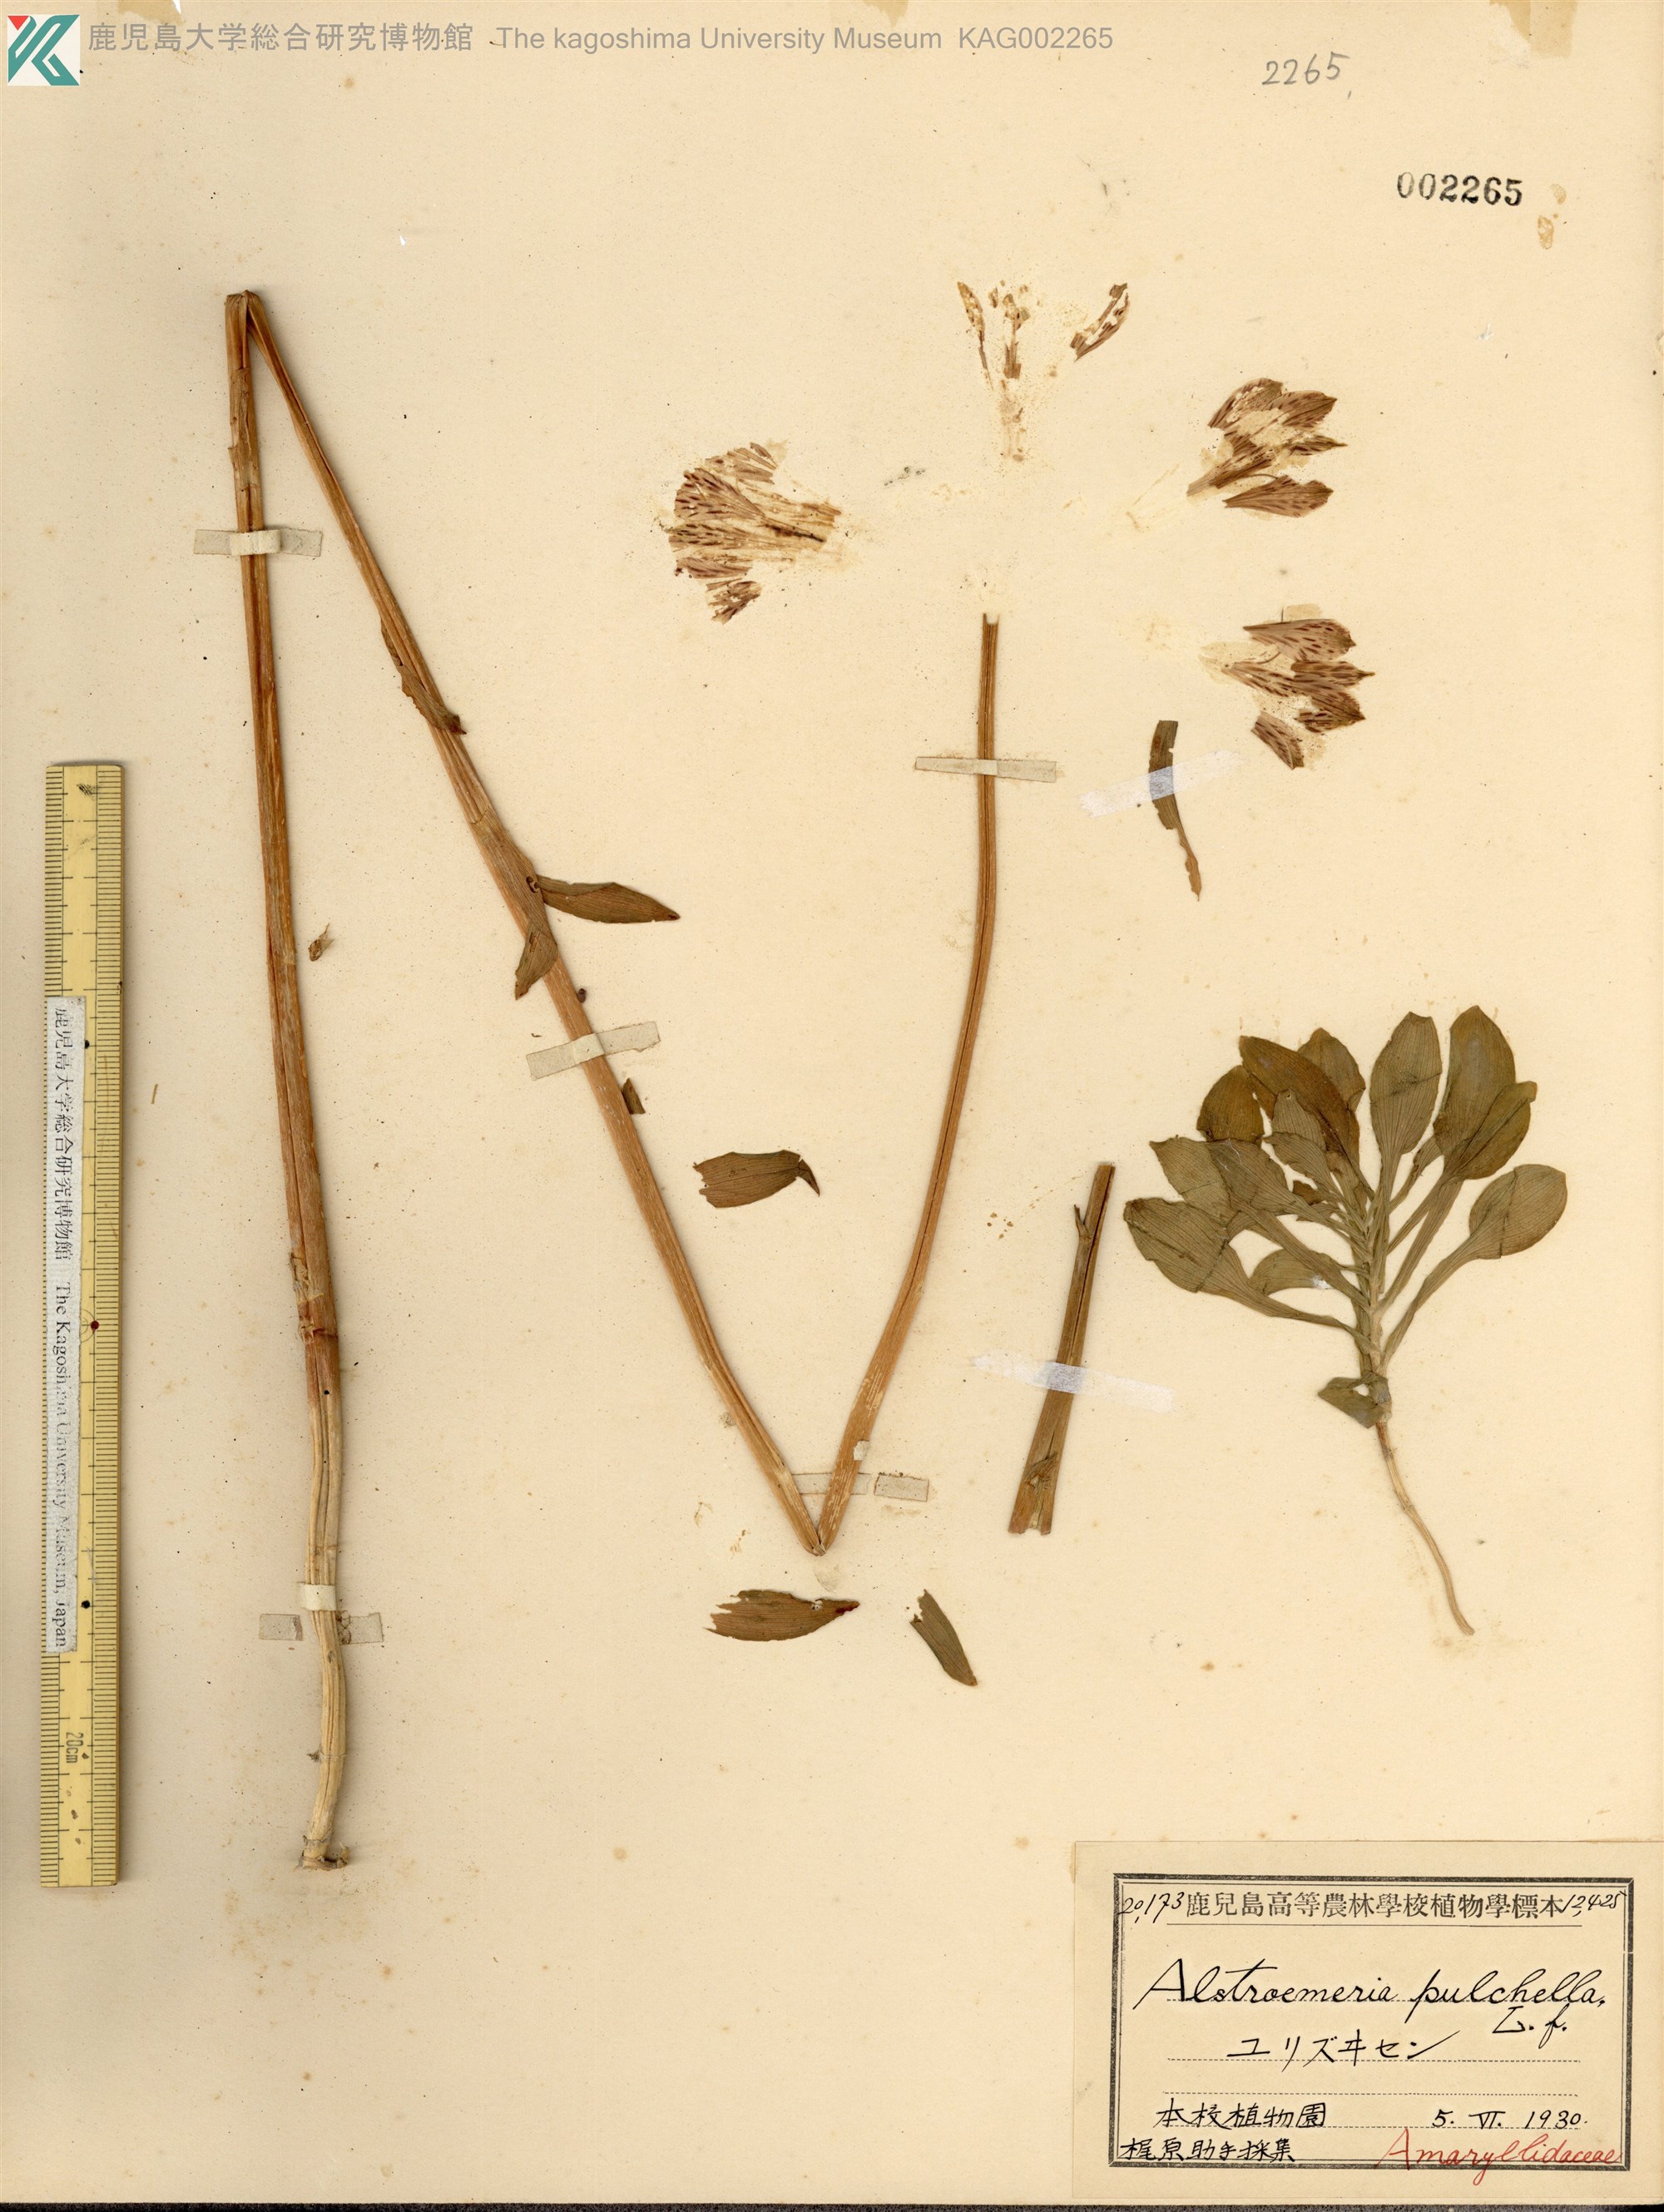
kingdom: Plantae
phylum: Tracheophyta
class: Liliopsida
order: Liliales
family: Alstroemeriaceae
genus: Alstroemeria
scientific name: Alstroemeria pelegrina
